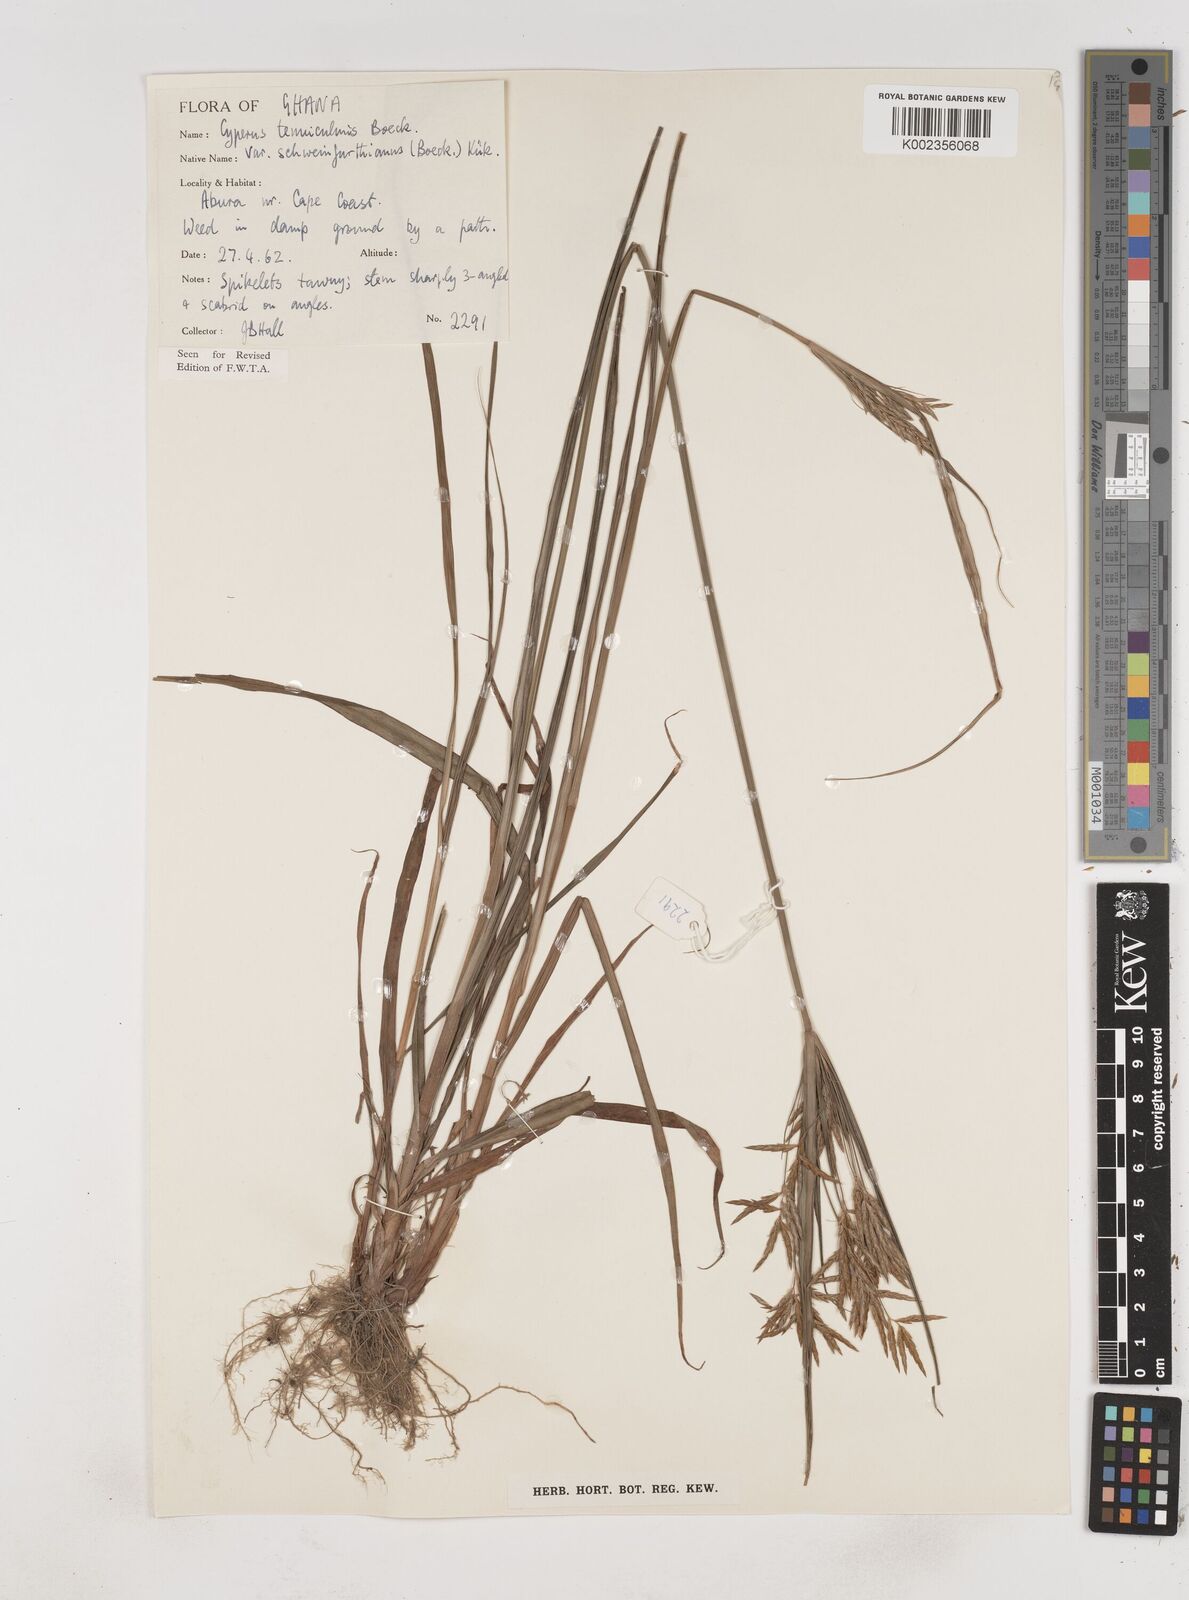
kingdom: Plantae
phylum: Tracheophyta
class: Liliopsida
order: Poales
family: Cyperaceae
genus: Cyperus
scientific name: Cyperus tenuiculmis
